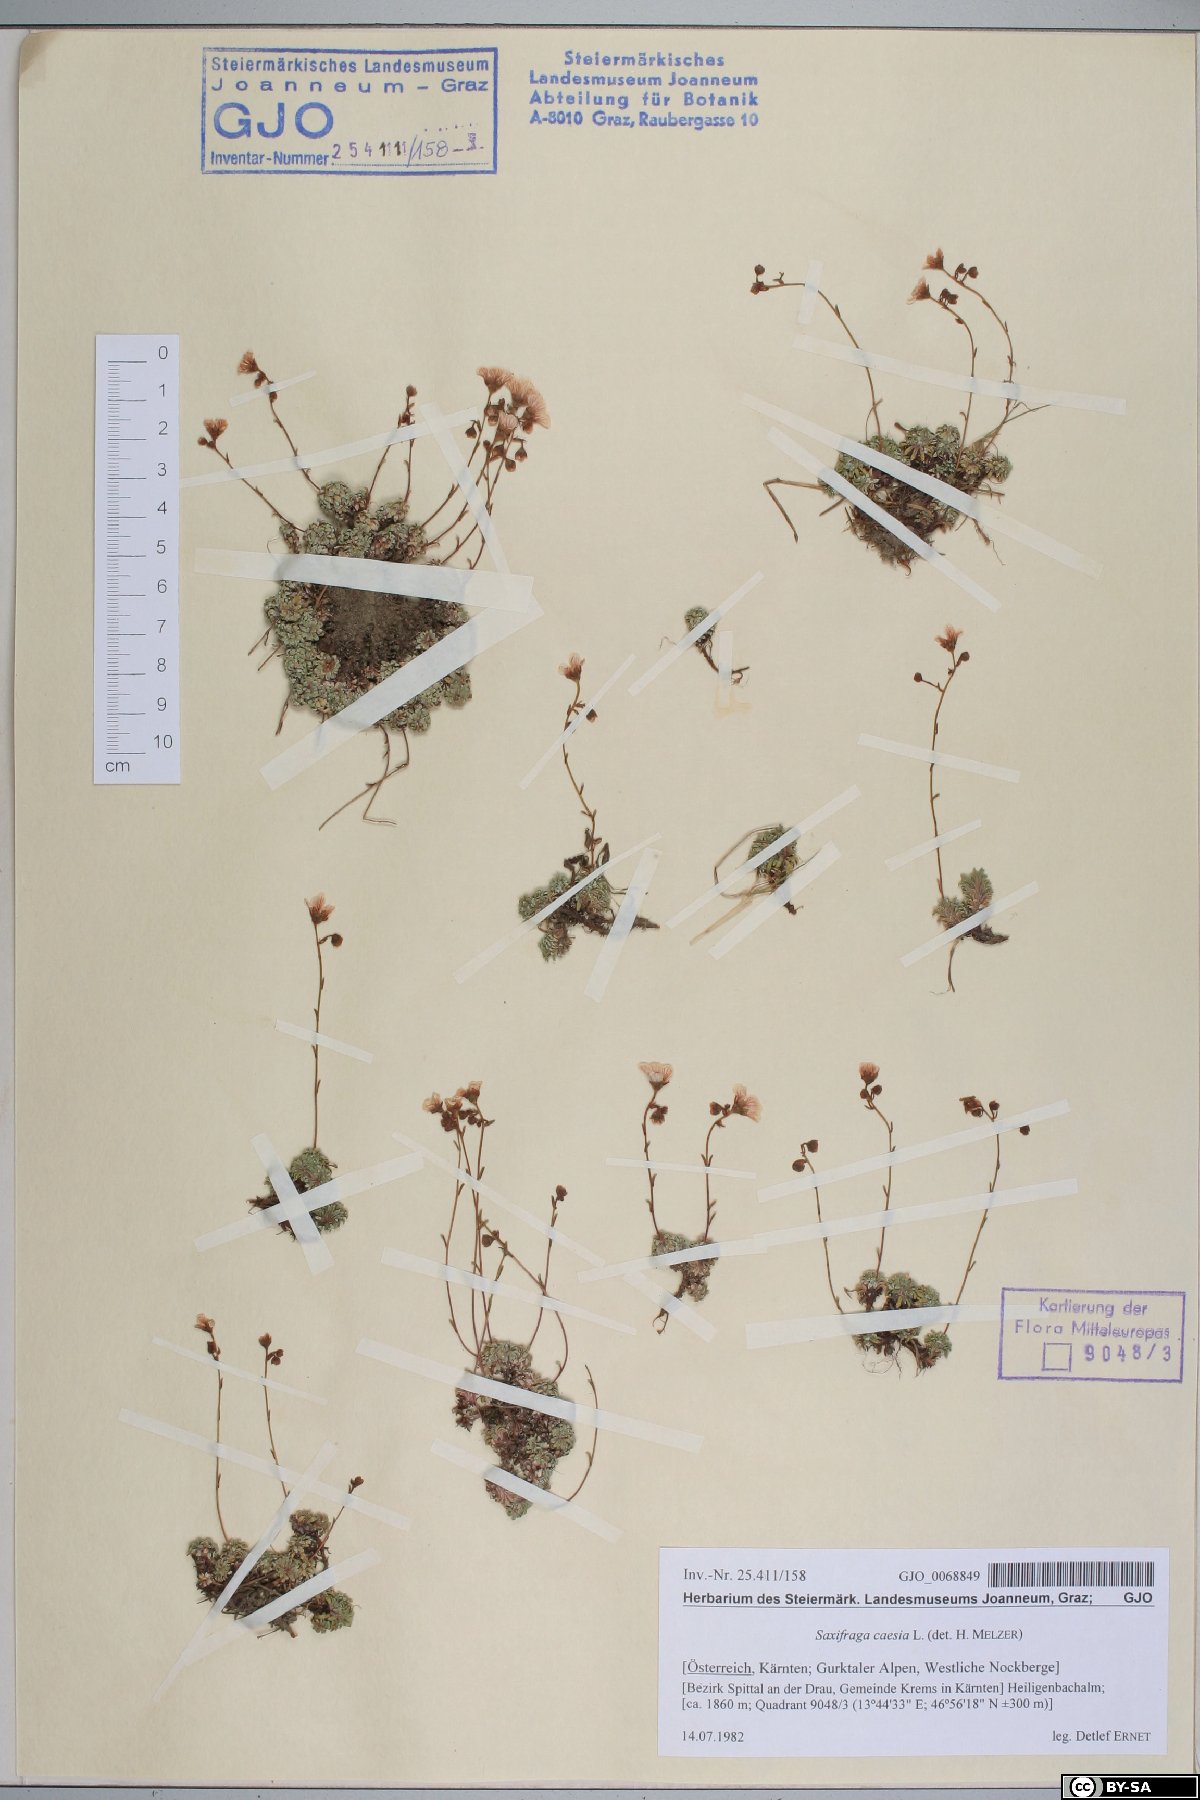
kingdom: Plantae
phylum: Tracheophyta
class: Magnoliopsida
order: Saxifragales
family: Saxifragaceae
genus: Saxifraga
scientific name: Saxifraga caesia
